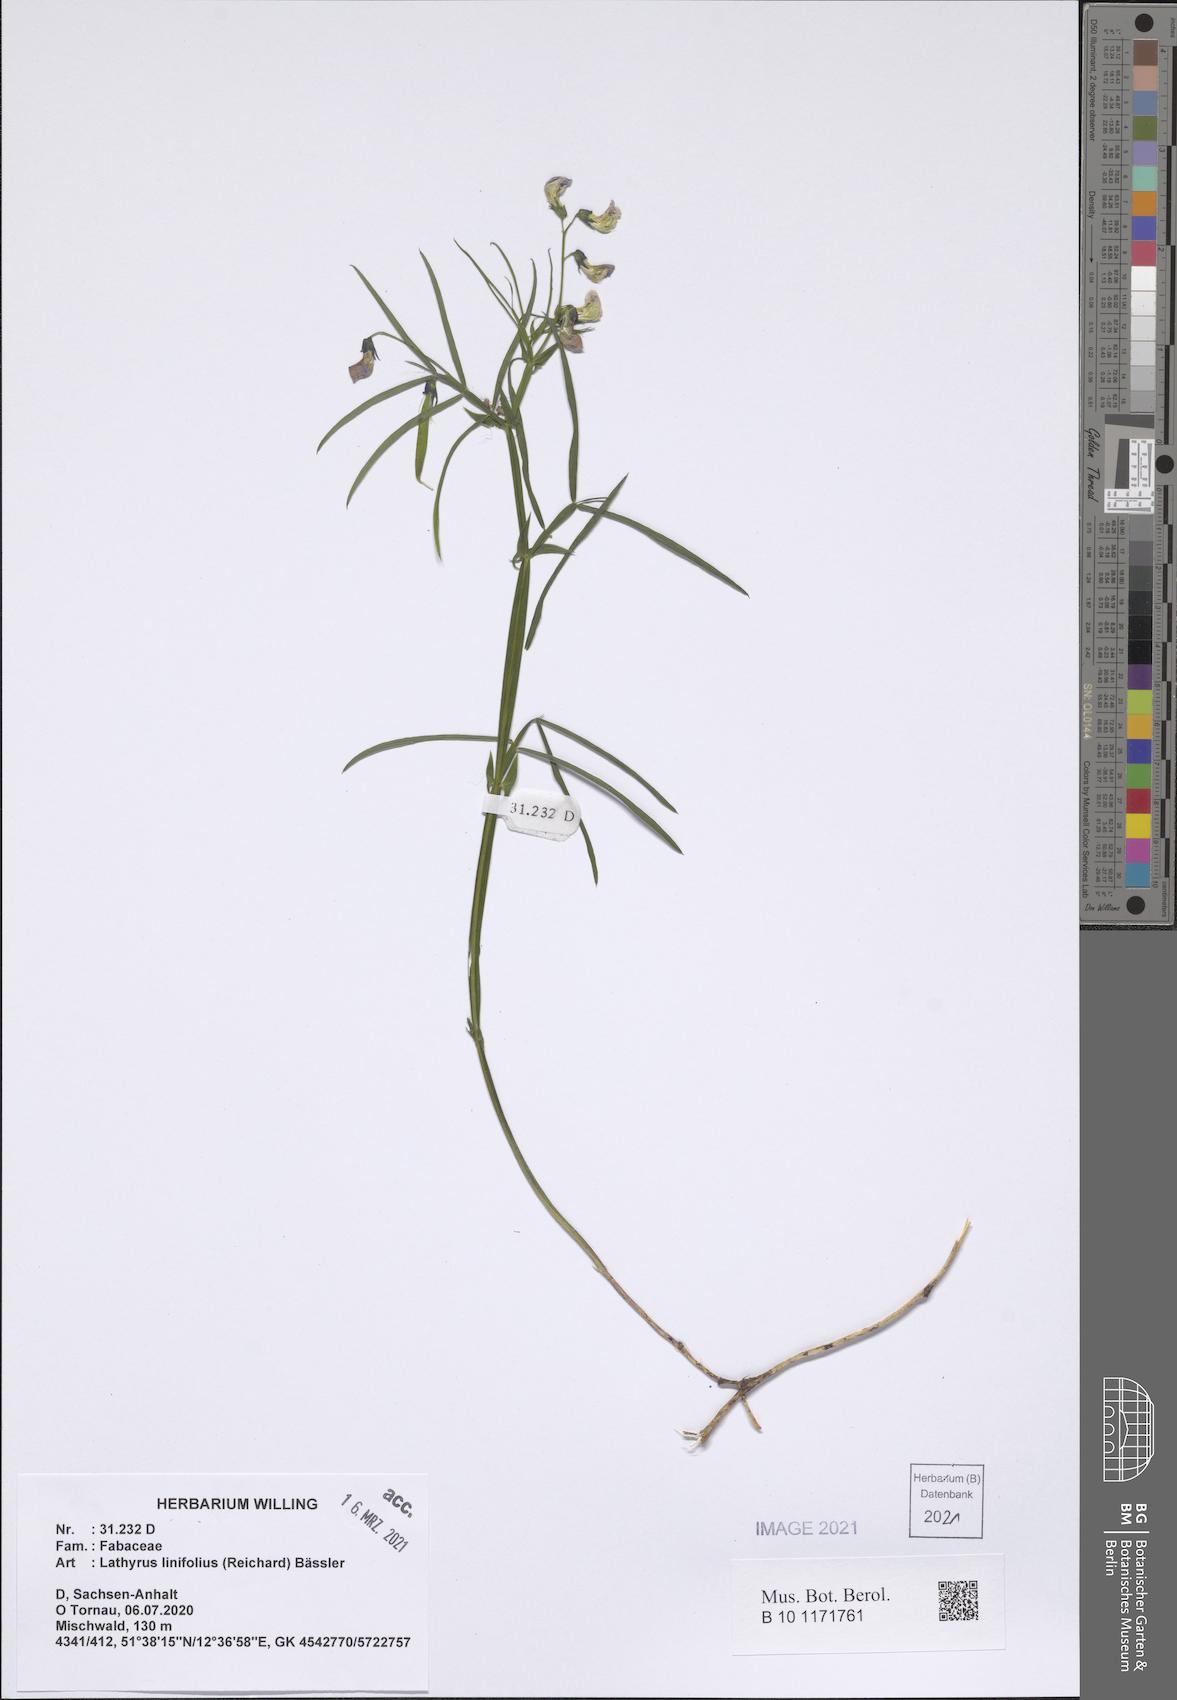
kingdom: Plantae
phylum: Tracheophyta
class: Magnoliopsida
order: Fabales
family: Fabaceae
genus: Lathyrus
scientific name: Lathyrus linifolius
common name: Bitter-vetch
